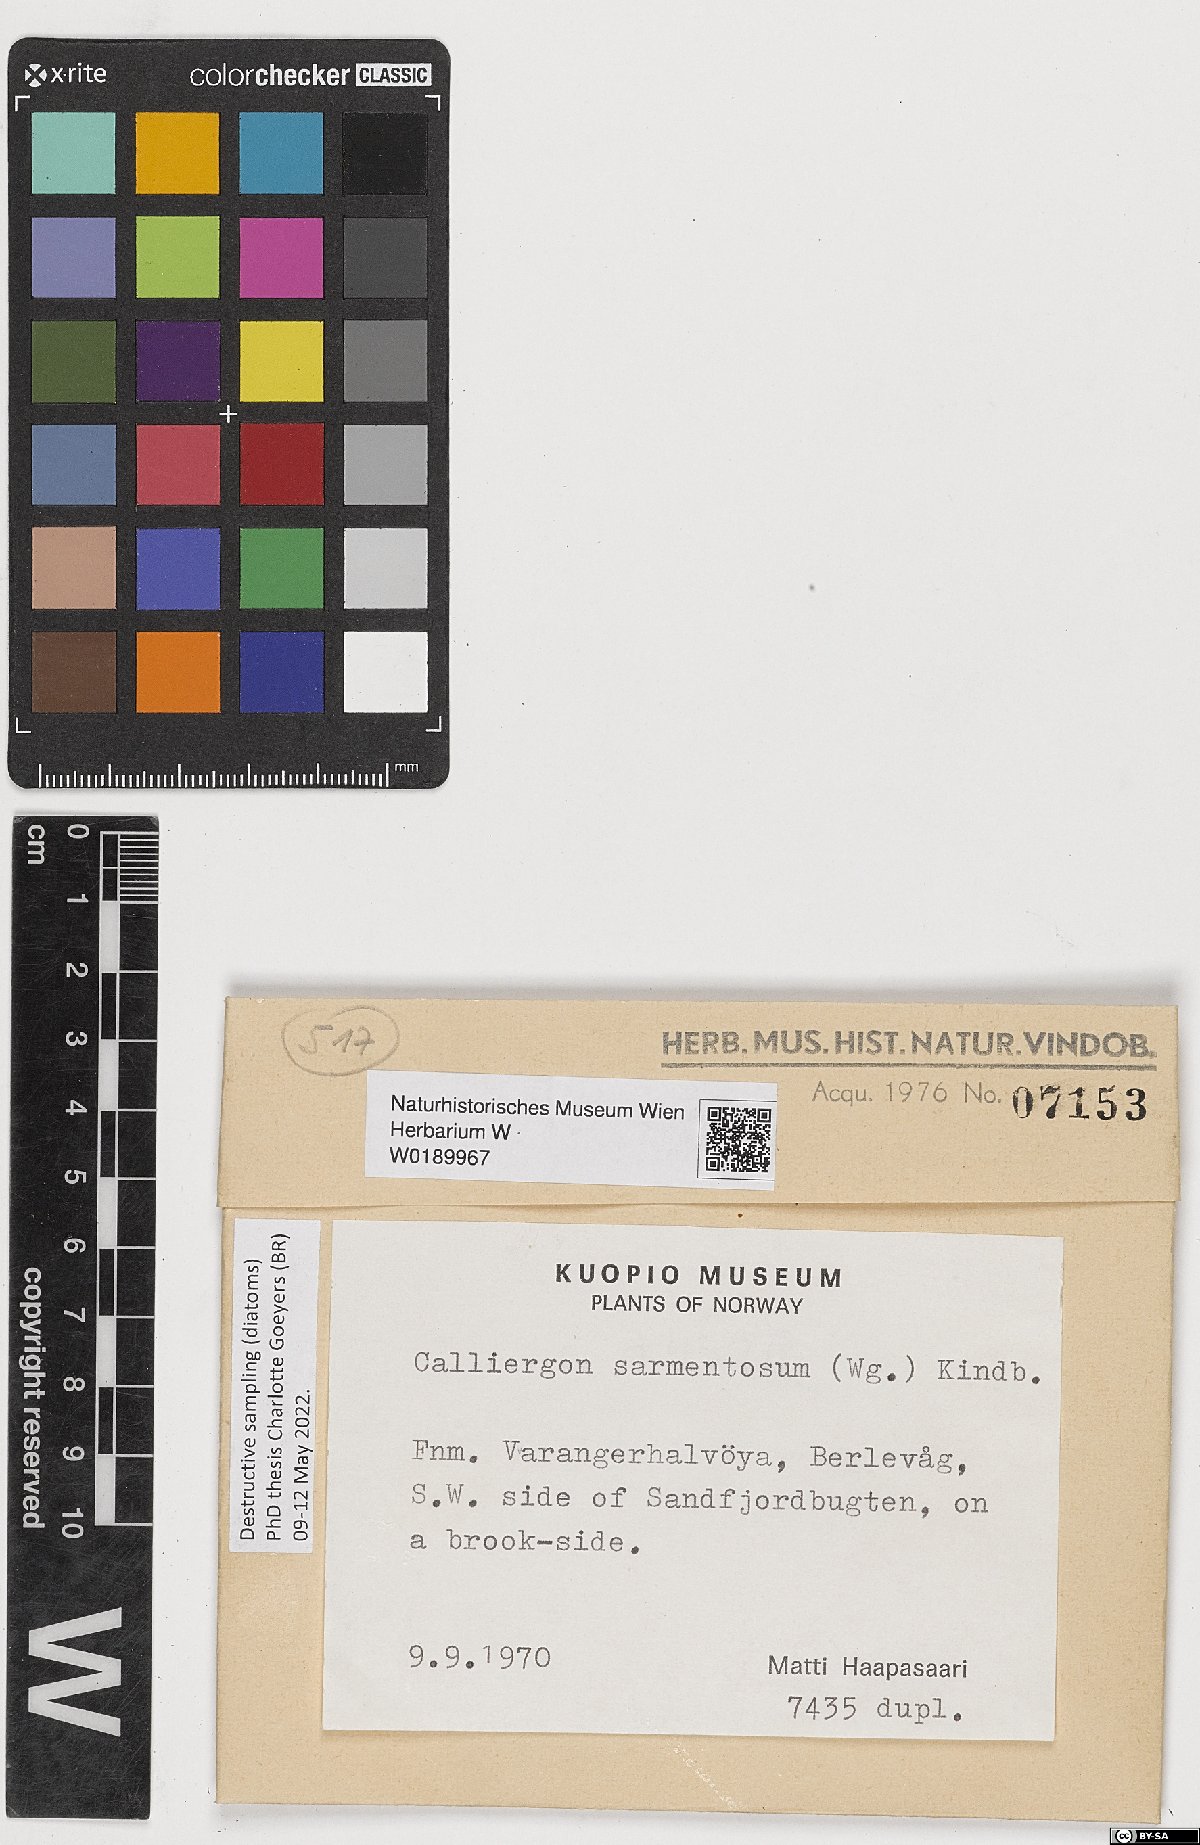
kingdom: Plantae
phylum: Bryophyta
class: Bryopsida
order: Hypnales
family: Calliergonaceae
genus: Sarmentypnum
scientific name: Sarmentypnum sarmentosum
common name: Twiggy spoon moss
